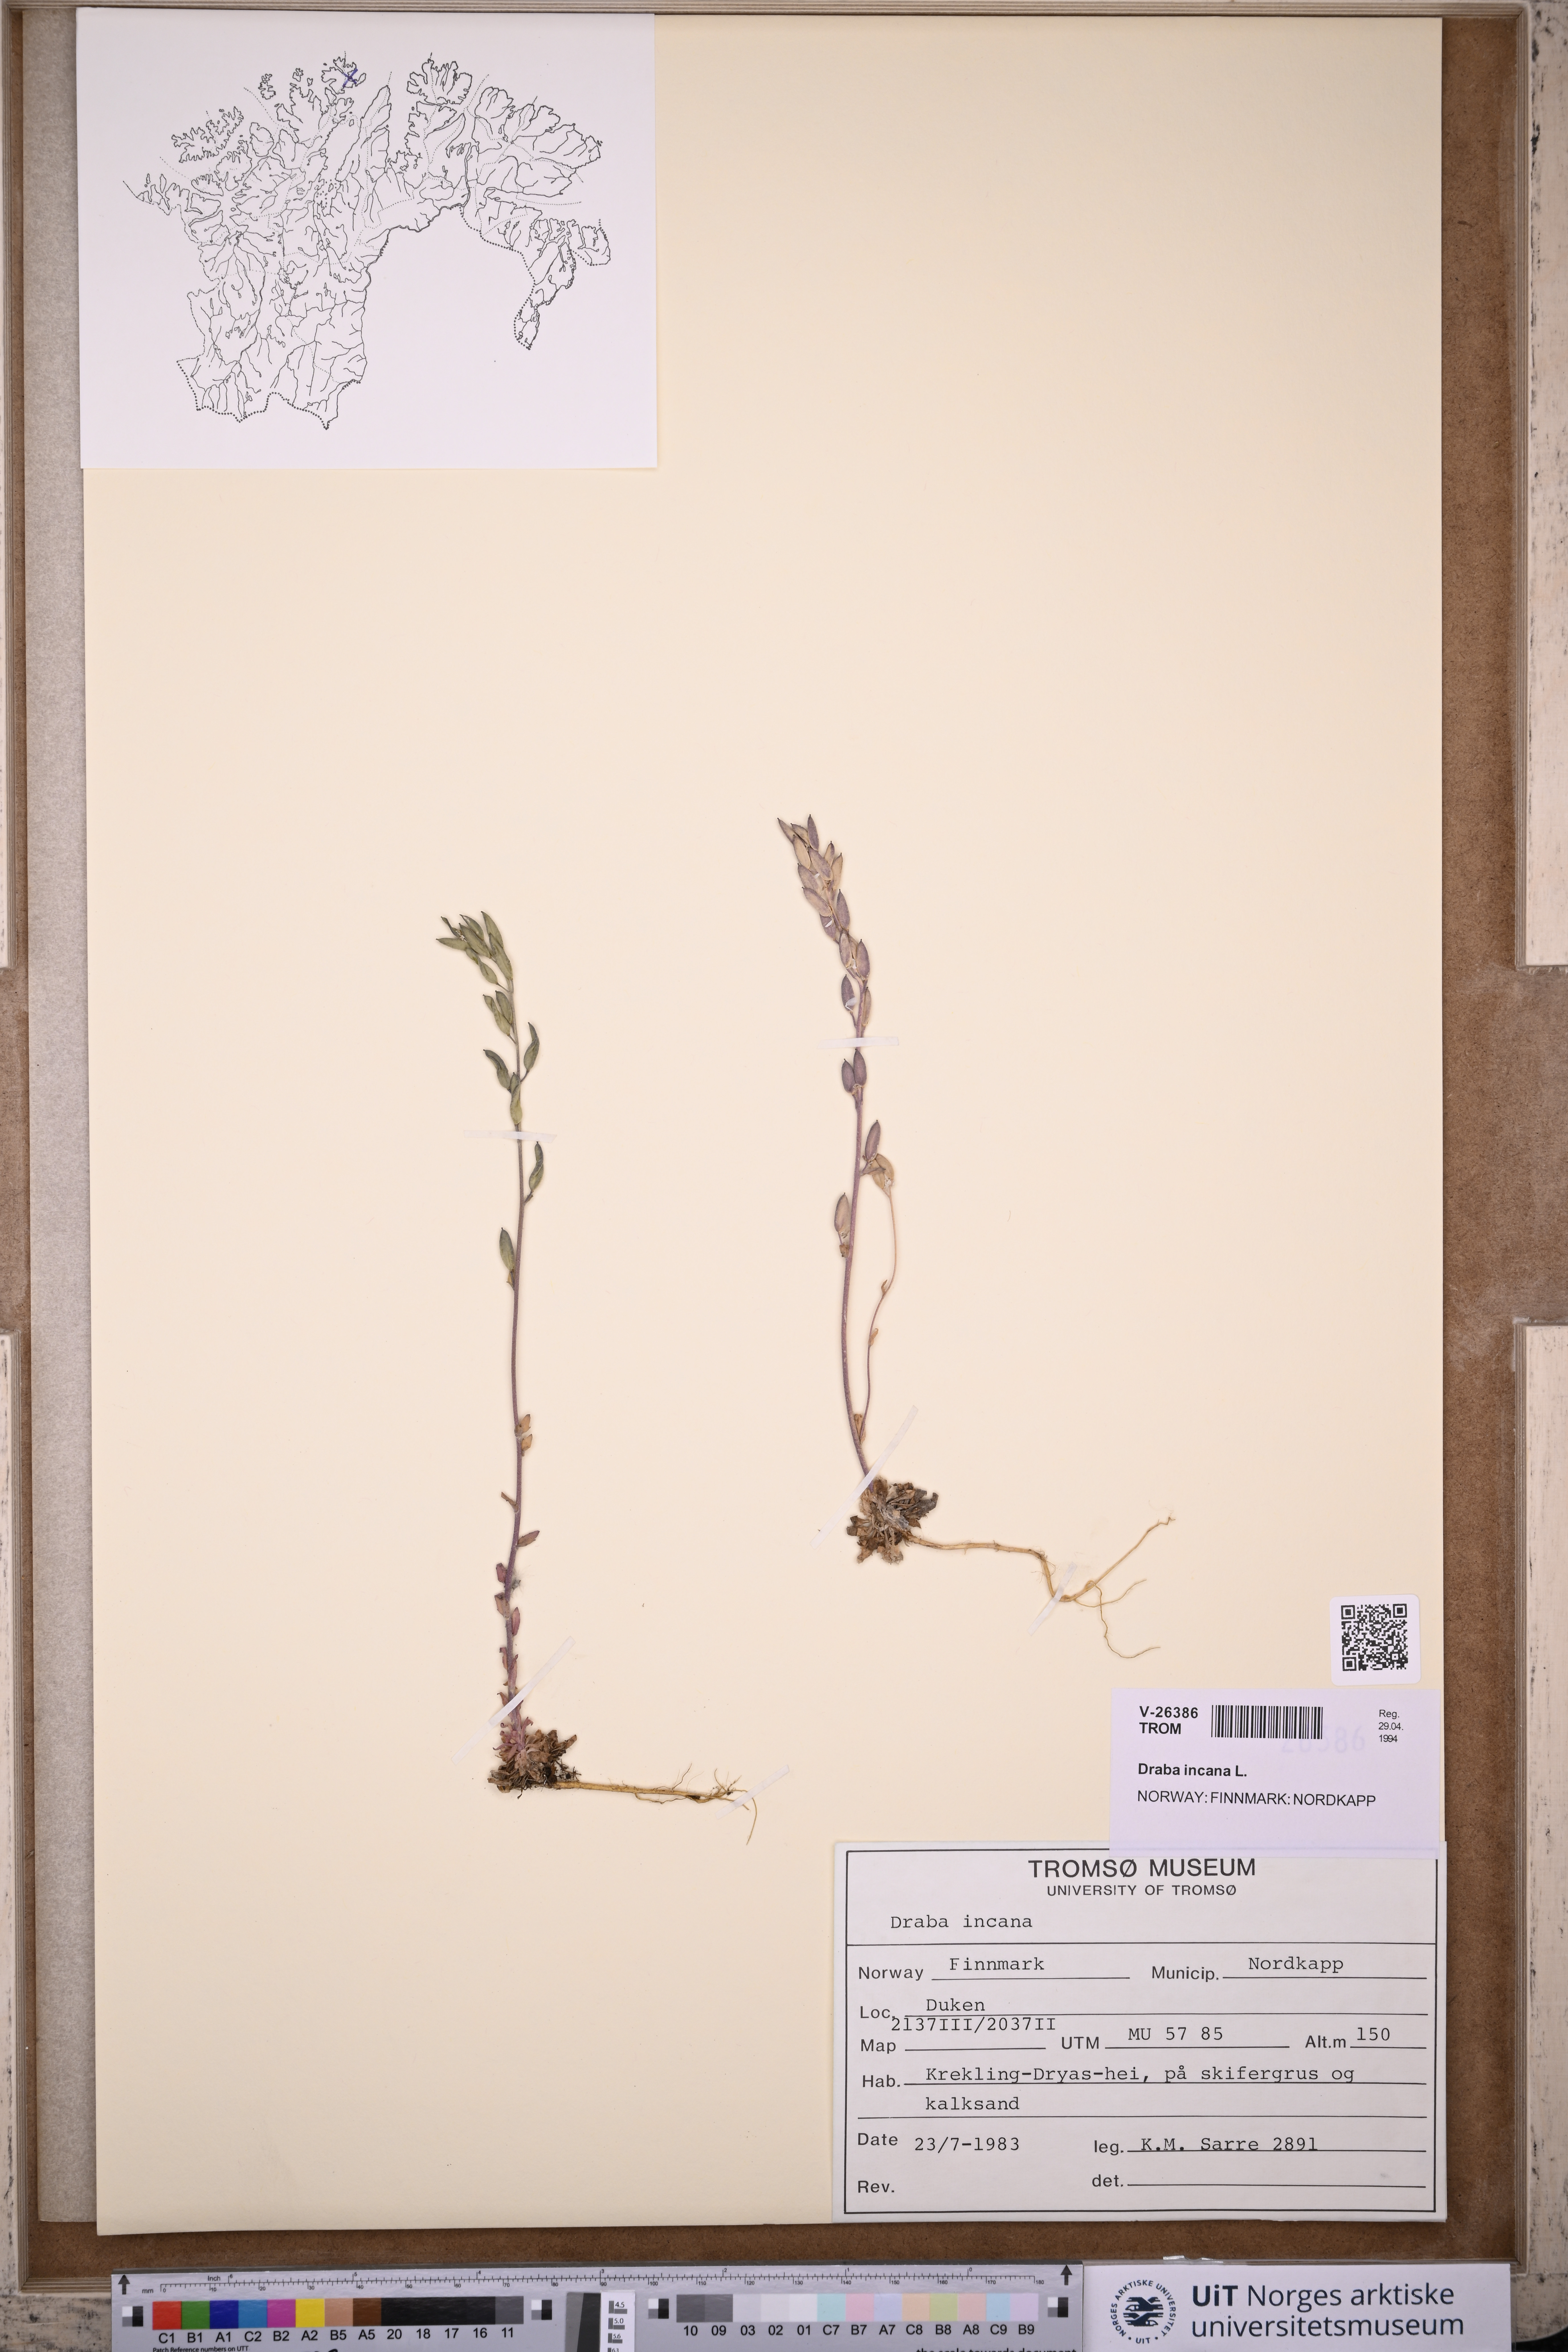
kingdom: Plantae
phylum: Tracheophyta
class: Magnoliopsida
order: Brassicales
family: Brassicaceae
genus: Draba
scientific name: Draba incana
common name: Hoary whitlow-grass
